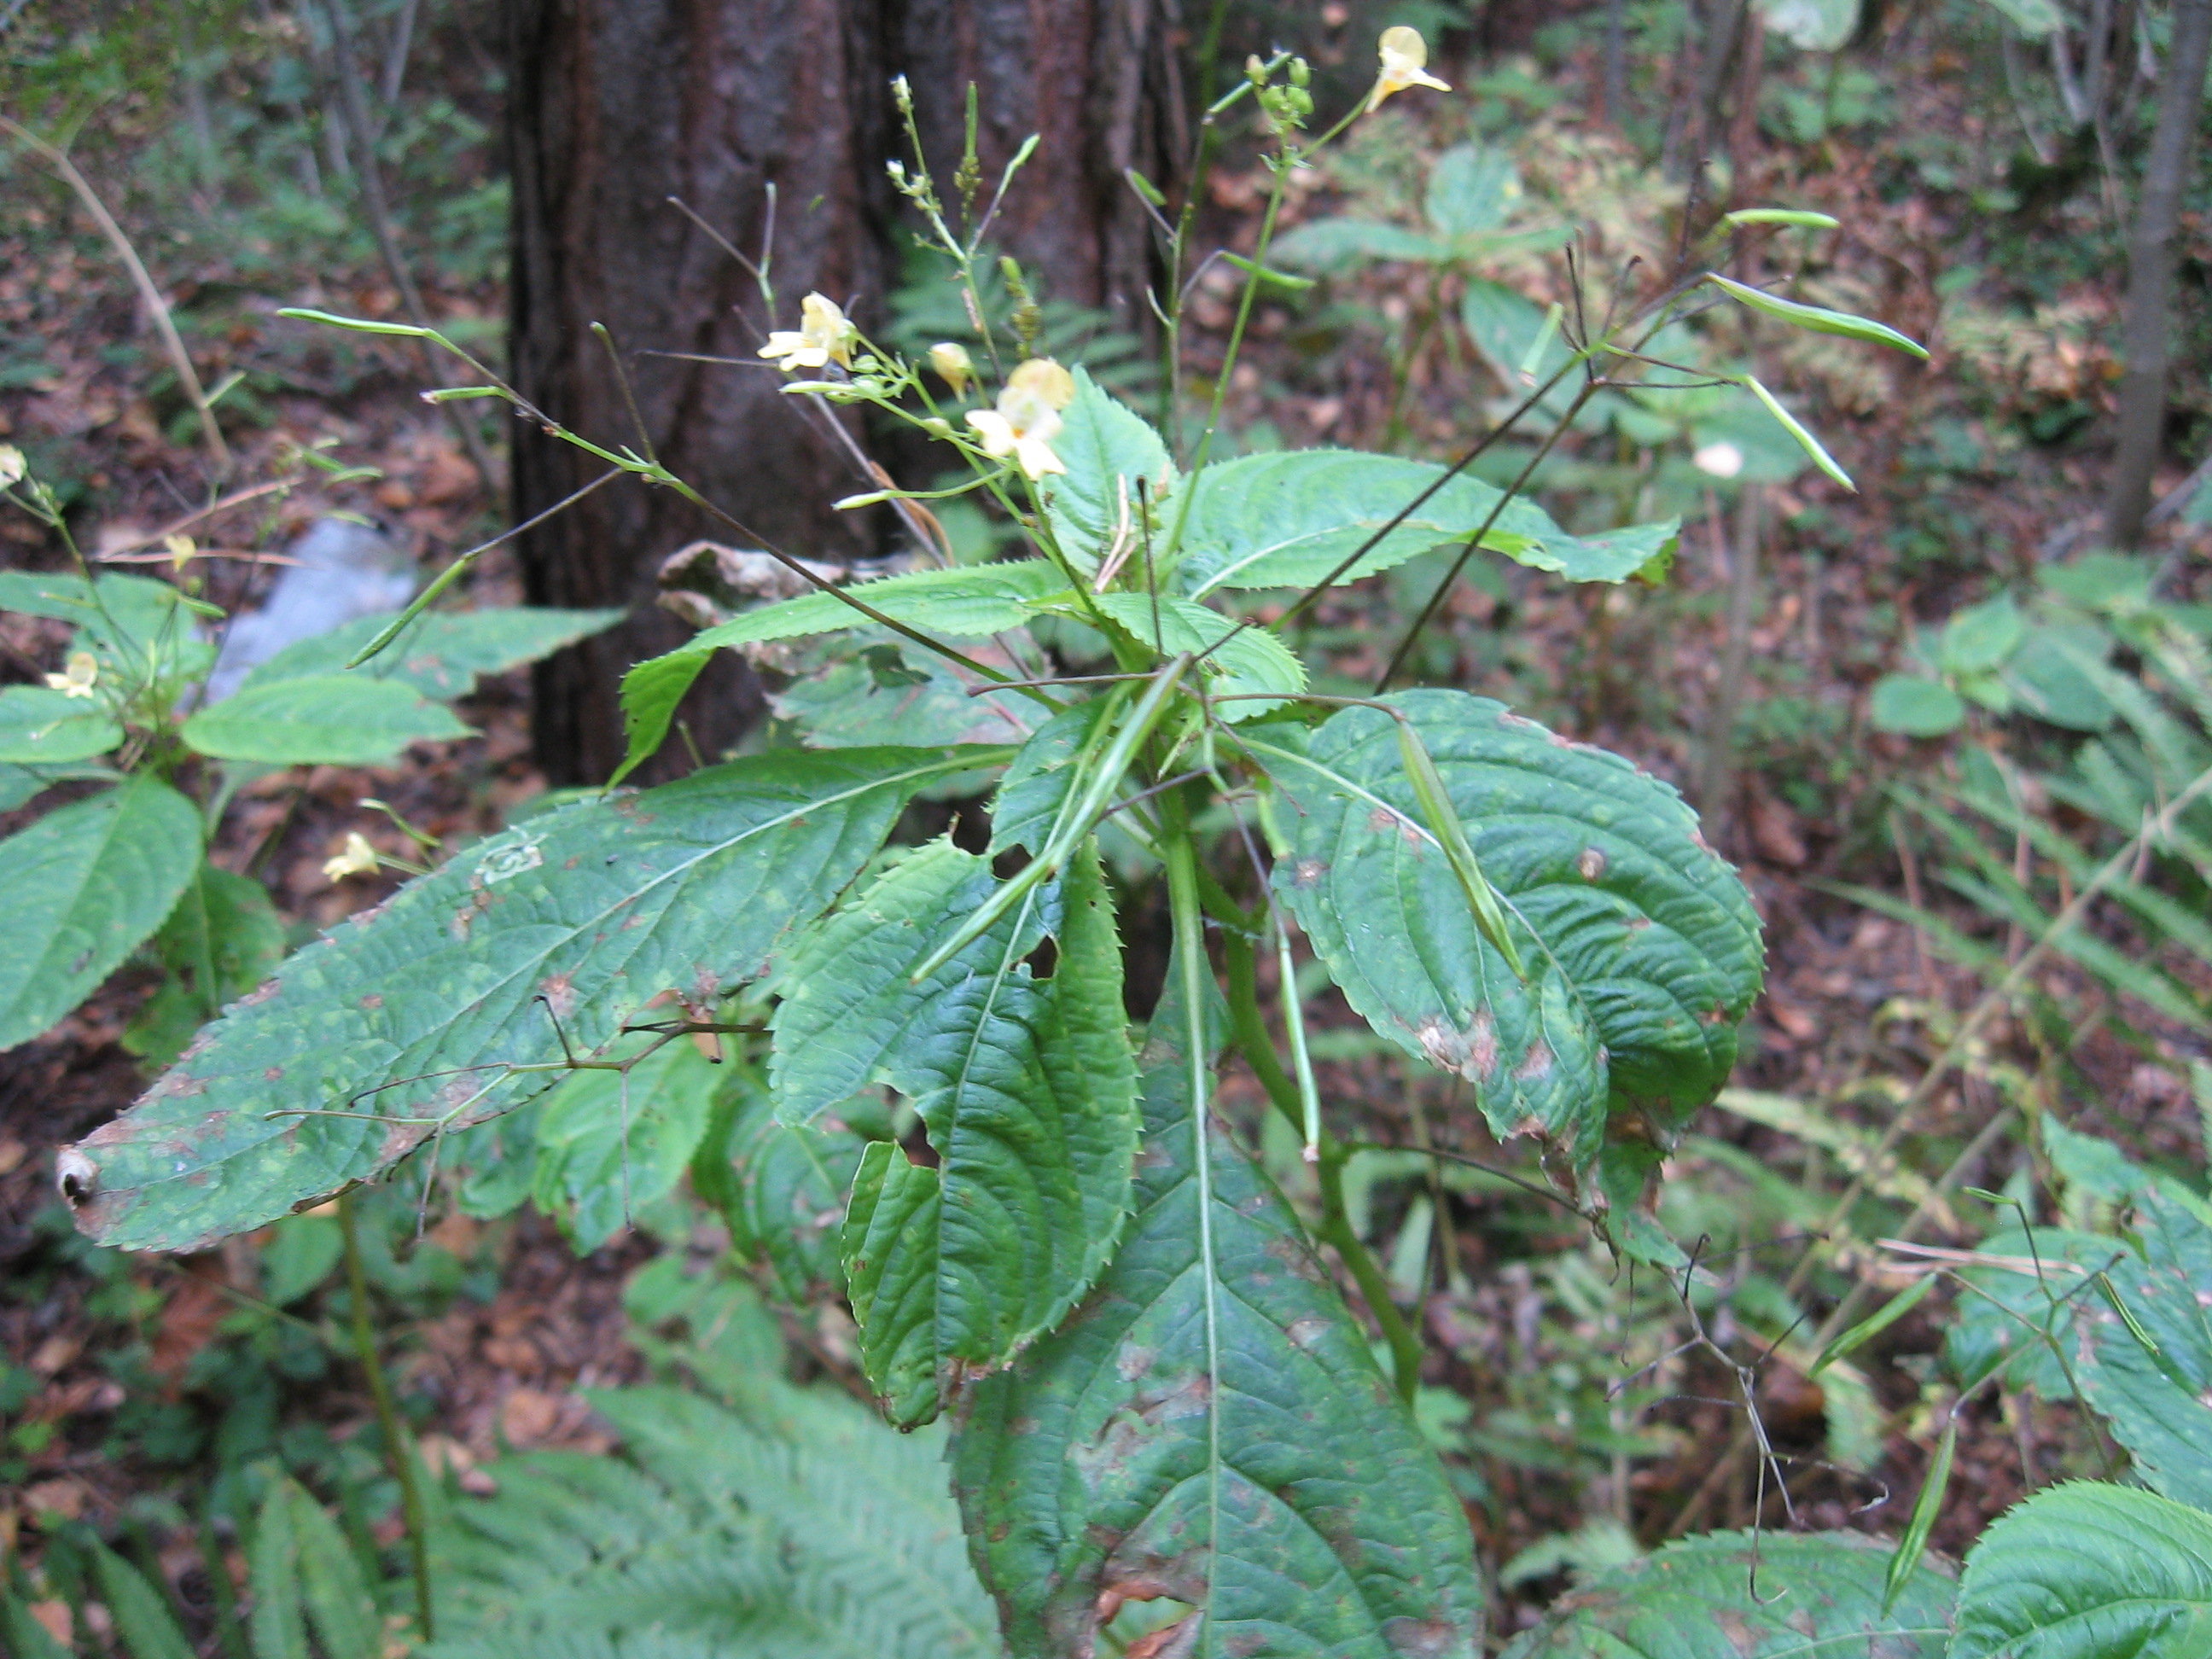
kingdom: Plantae
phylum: Tracheophyta
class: Magnoliopsida
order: Ericales
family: Balsaminaceae
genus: Impatiens
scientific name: Impatiens parviflora
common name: Small balsam
